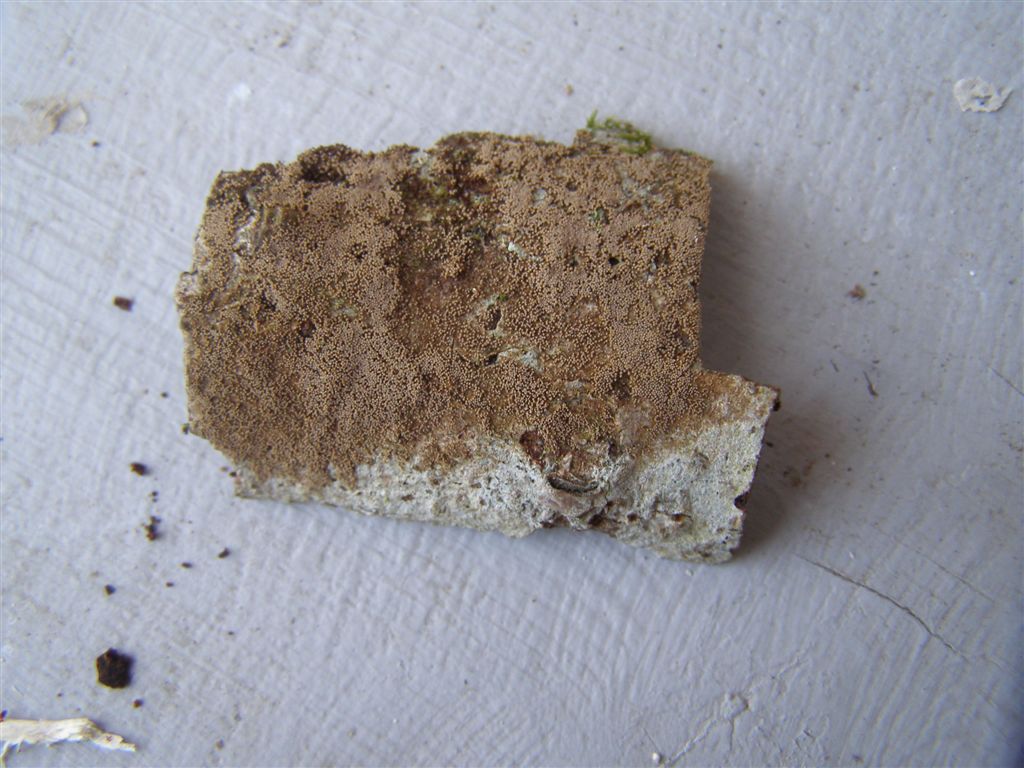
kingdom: Fungi
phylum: Basidiomycota
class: Agaricomycetes
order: Agaricales
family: Niaceae
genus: Merismodes
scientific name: Merismodes anomala
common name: almindelig læderskål
